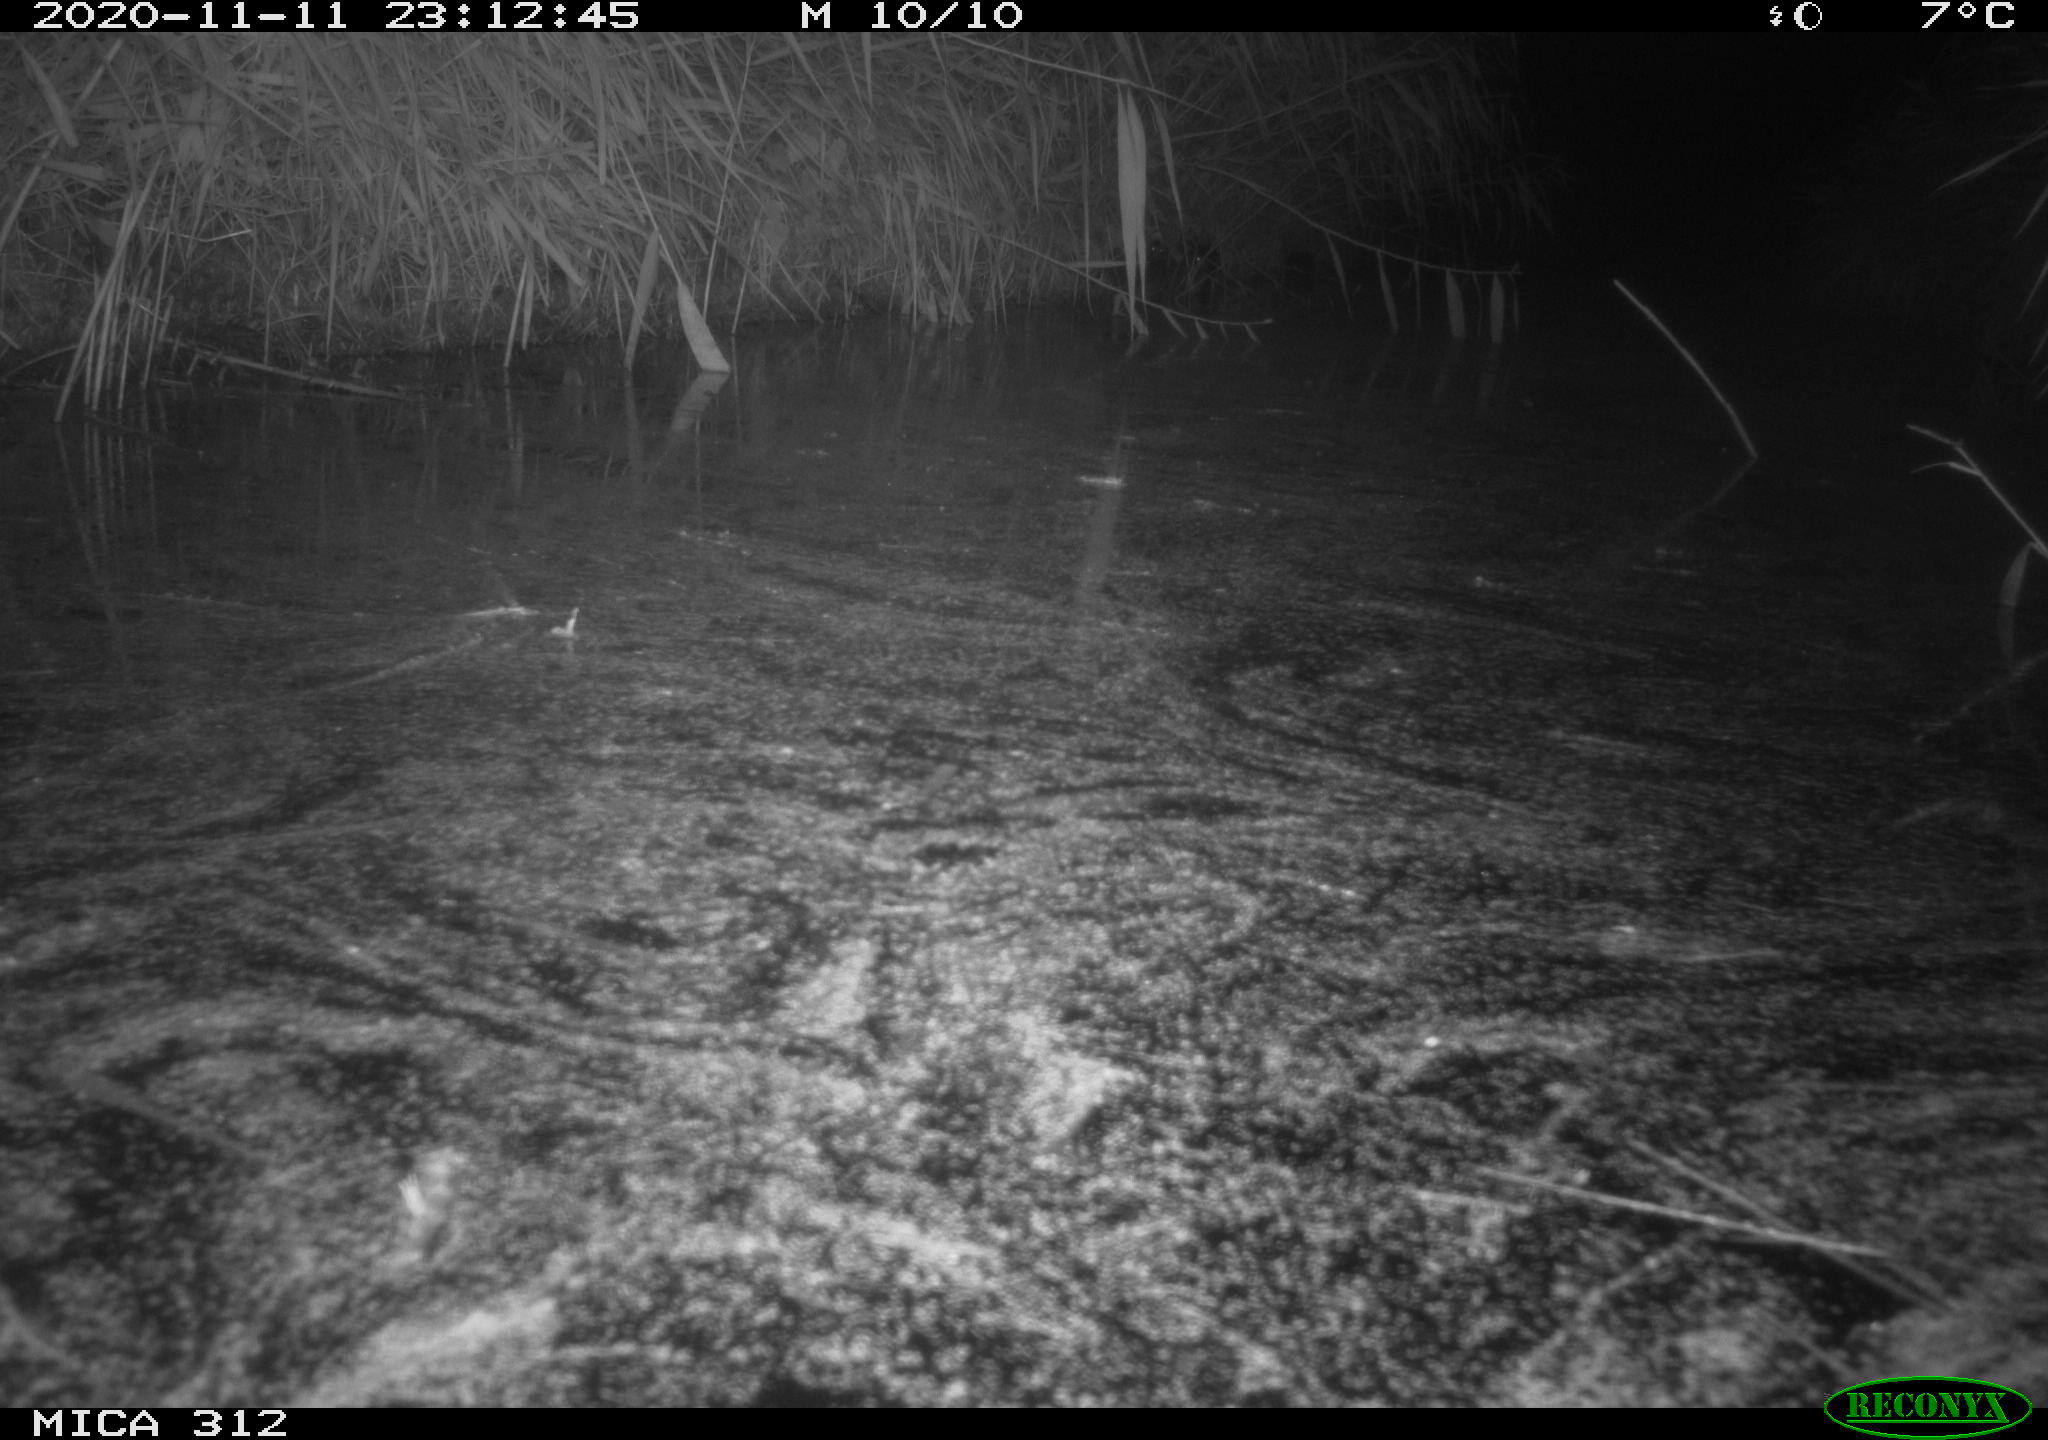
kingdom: Animalia
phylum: Chordata
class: Mammalia
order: Rodentia
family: Muridae
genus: Rattus
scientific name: Rattus norvegicus
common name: Brown rat
